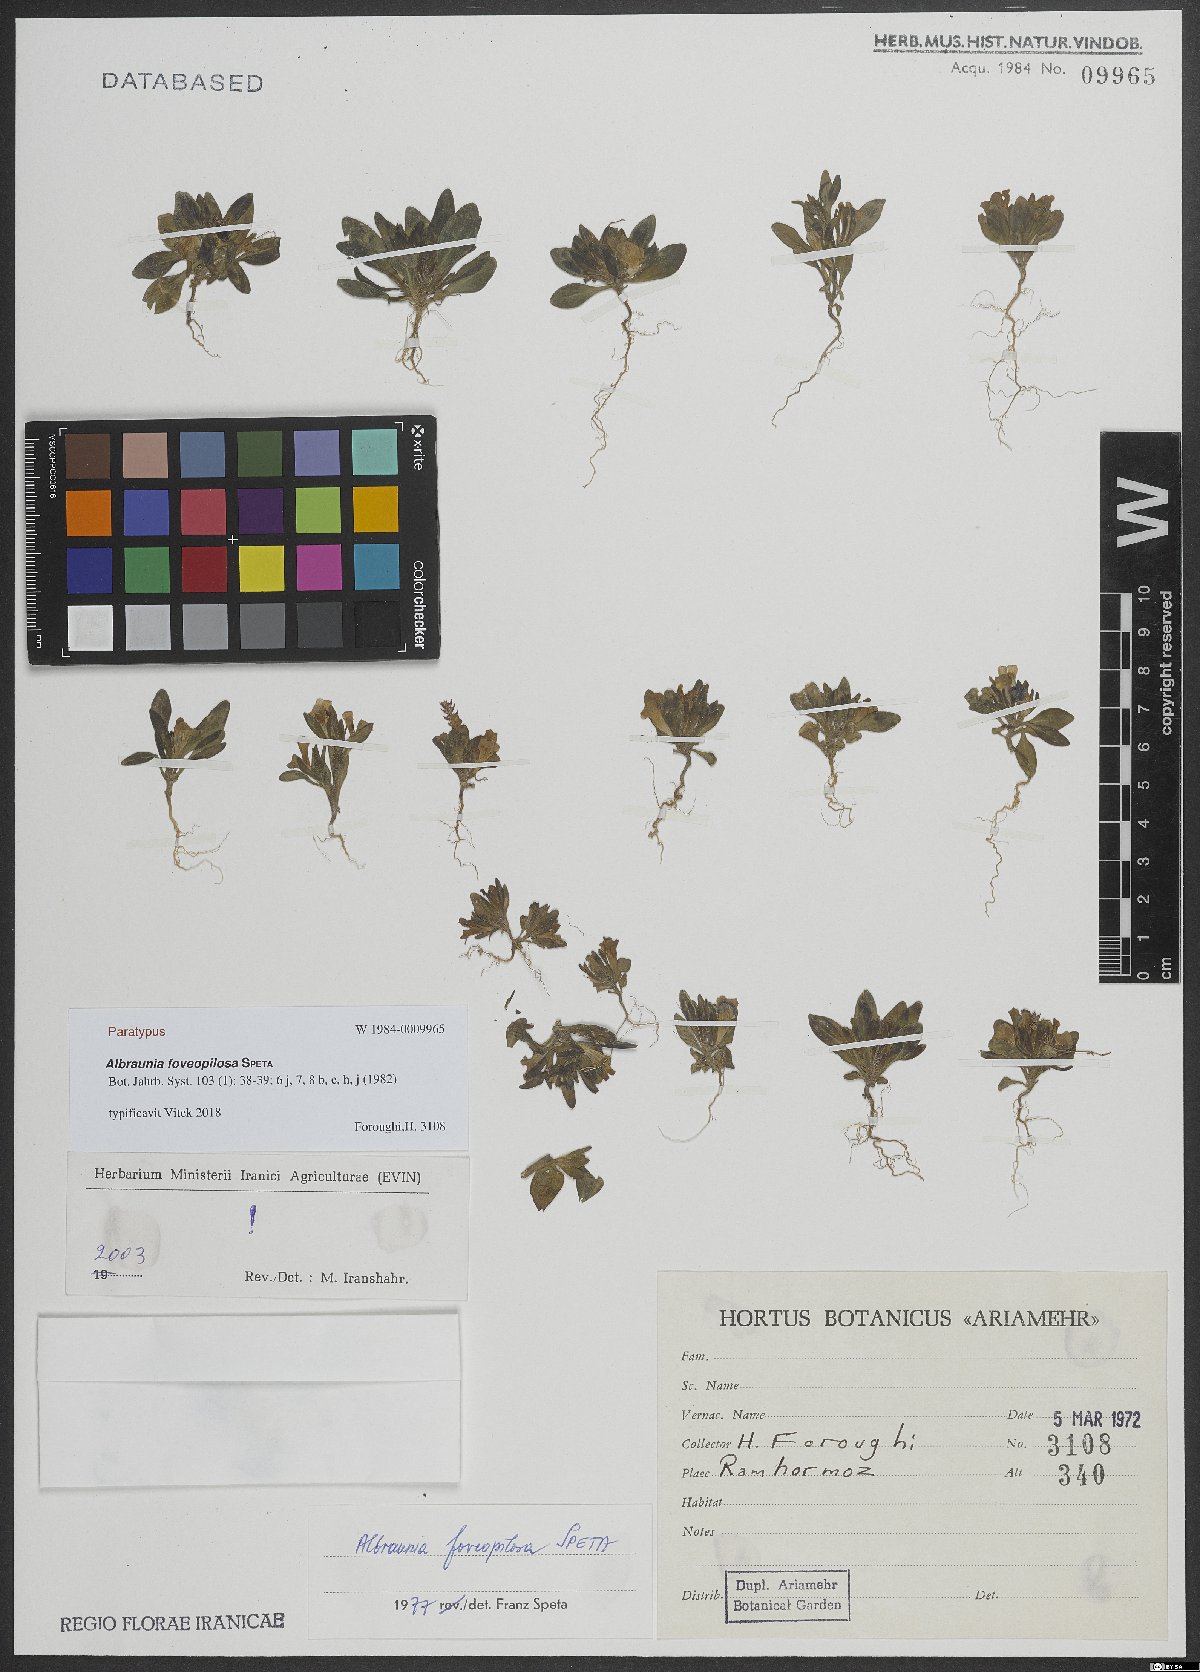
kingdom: Plantae
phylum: Tracheophyta
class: Magnoliopsida
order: Lamiales
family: Plantaginaceae
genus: Albraunia
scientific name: Albraunia foveopilosa
